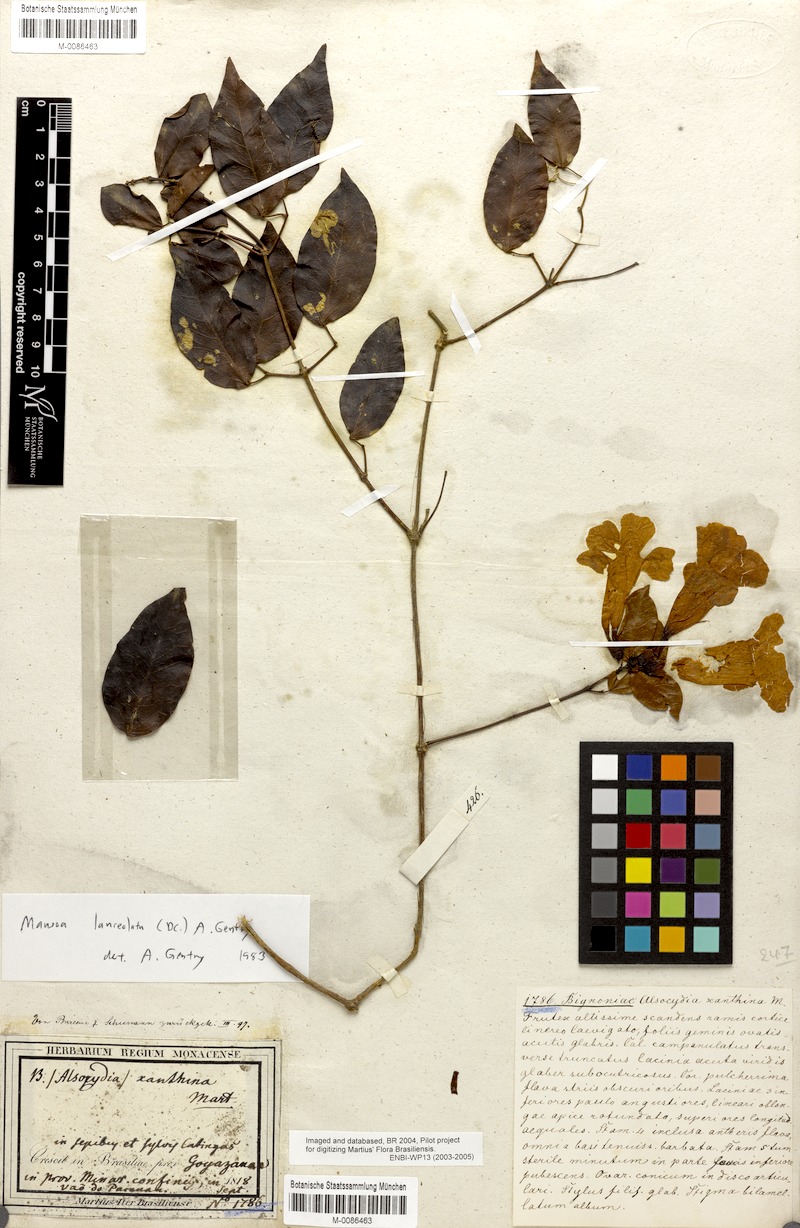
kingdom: Plantae
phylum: Tracheophyta
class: Magnoliopsida
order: Lamiales
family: Bignoniaceae
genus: Mansoa
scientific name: Mansoa lanceolata
